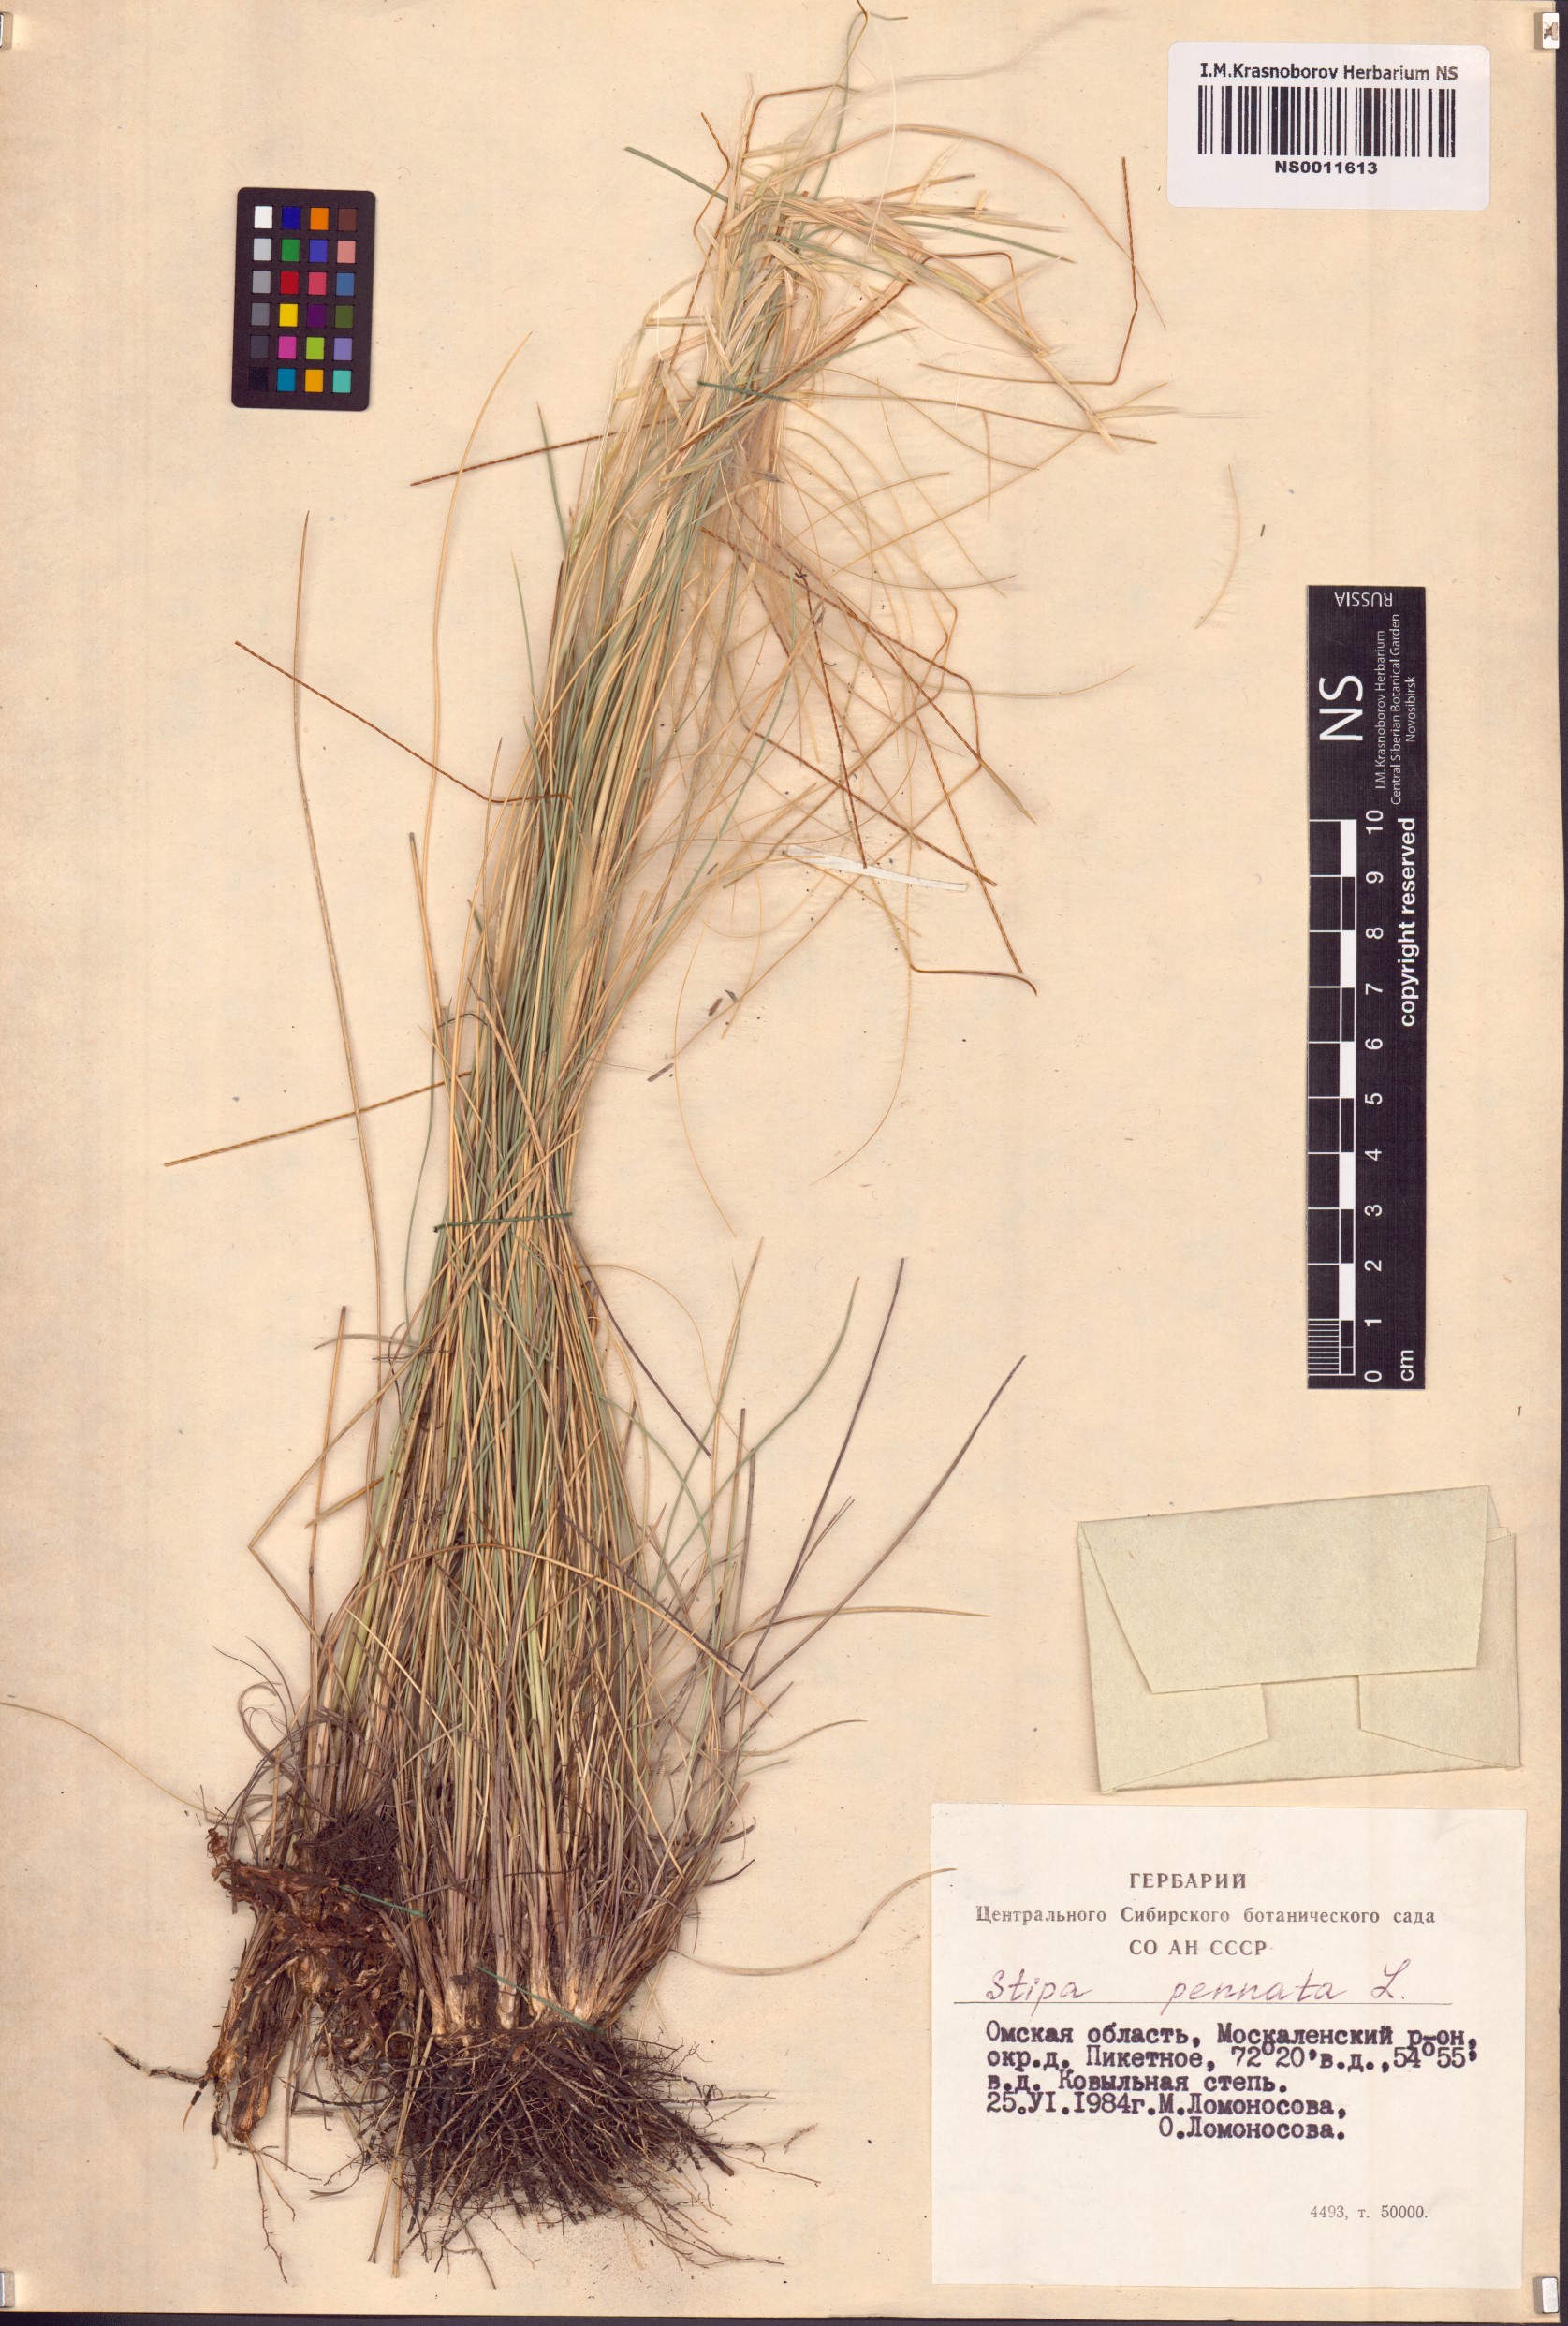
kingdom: Plantae
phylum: Tracheophyta
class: Liliopsida
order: Poales
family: Poaceae
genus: Stipa
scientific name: Stipa pennata
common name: European feather grass
